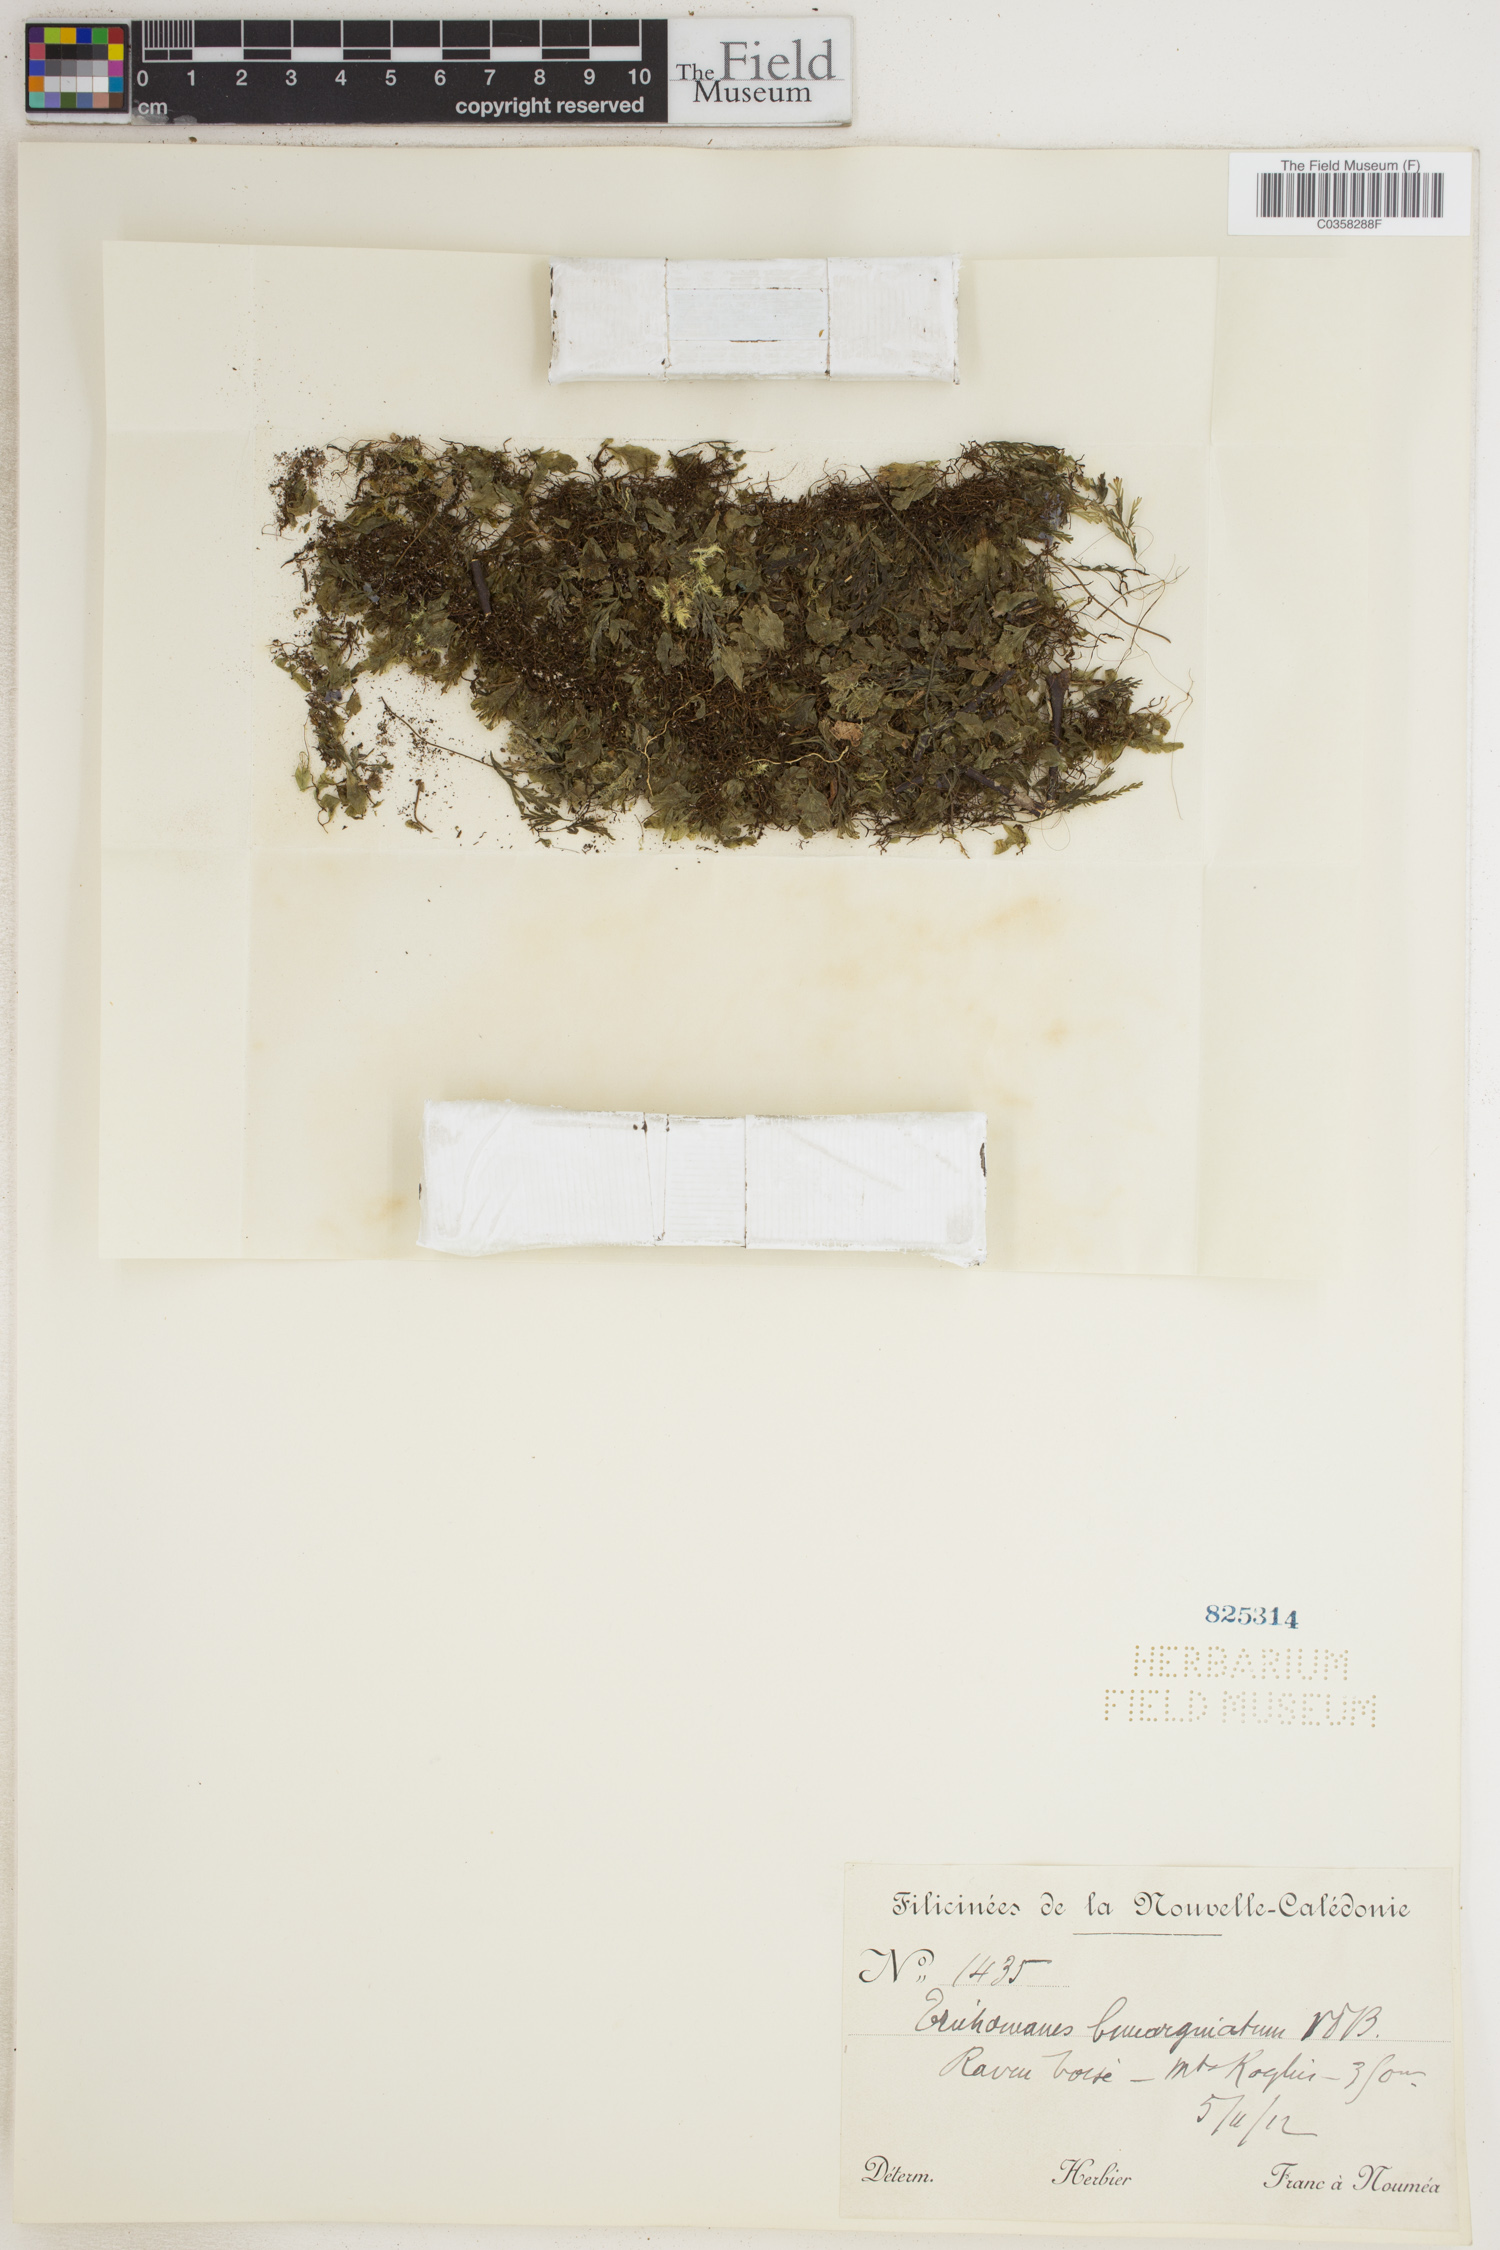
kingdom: Plantae
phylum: Tracheophyta
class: Polypodiopsida
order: Hymenophyllales
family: Hymenophyllaceae
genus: Didymoglossum
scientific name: Didymoglossum bimarginatum
